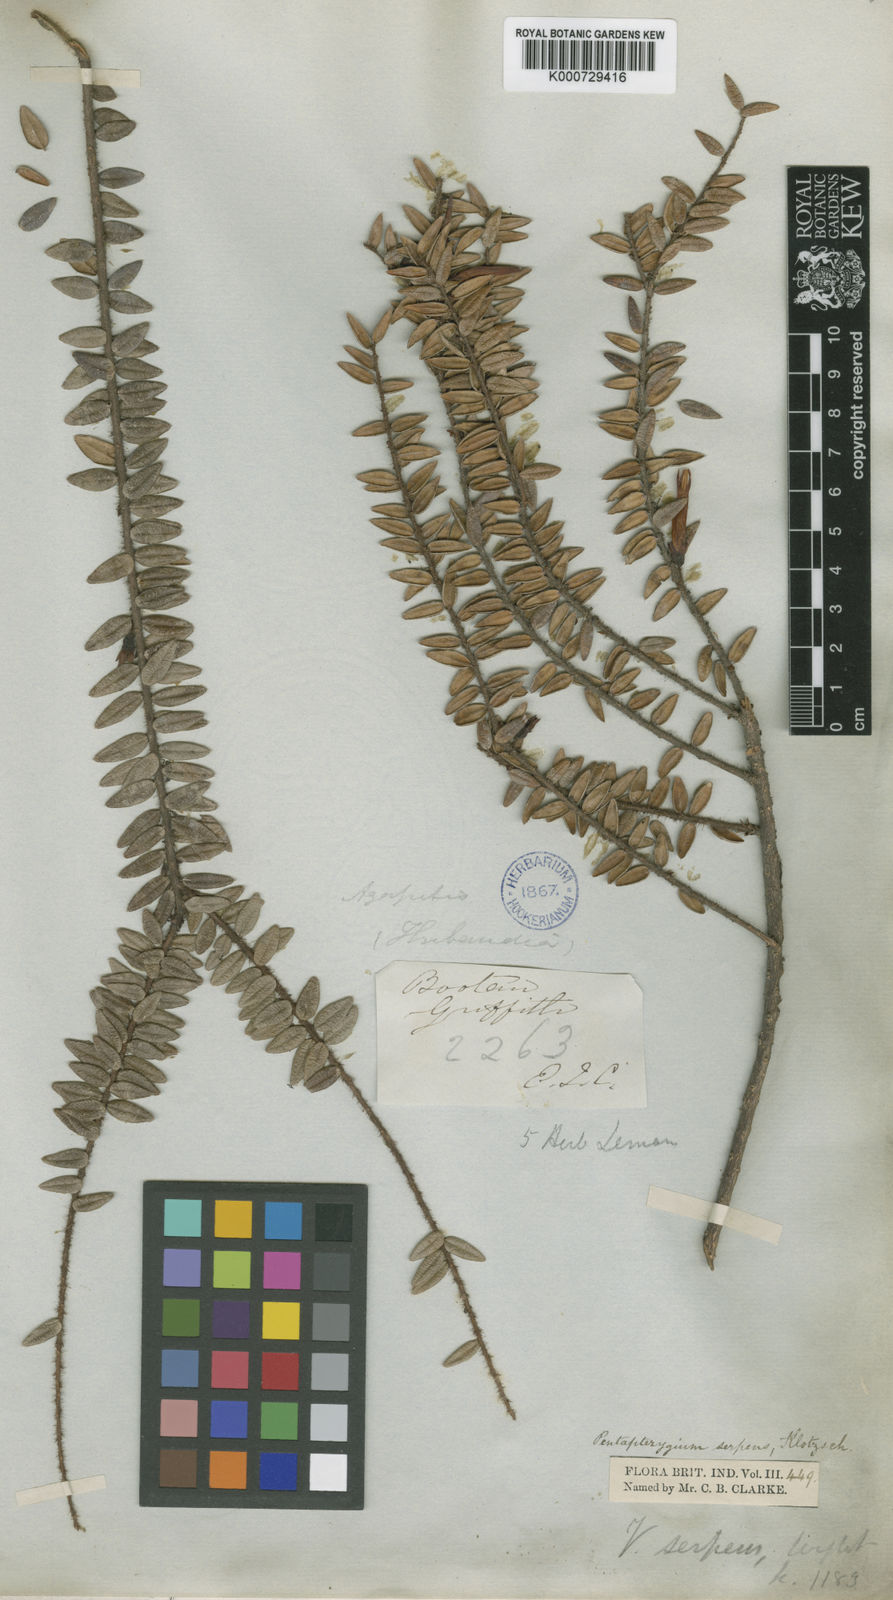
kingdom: Plantae
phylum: Tracheophyta
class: Magnoliopsida
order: Ericales
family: Ericaceae
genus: Agapetes
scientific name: Agapetes serpens
